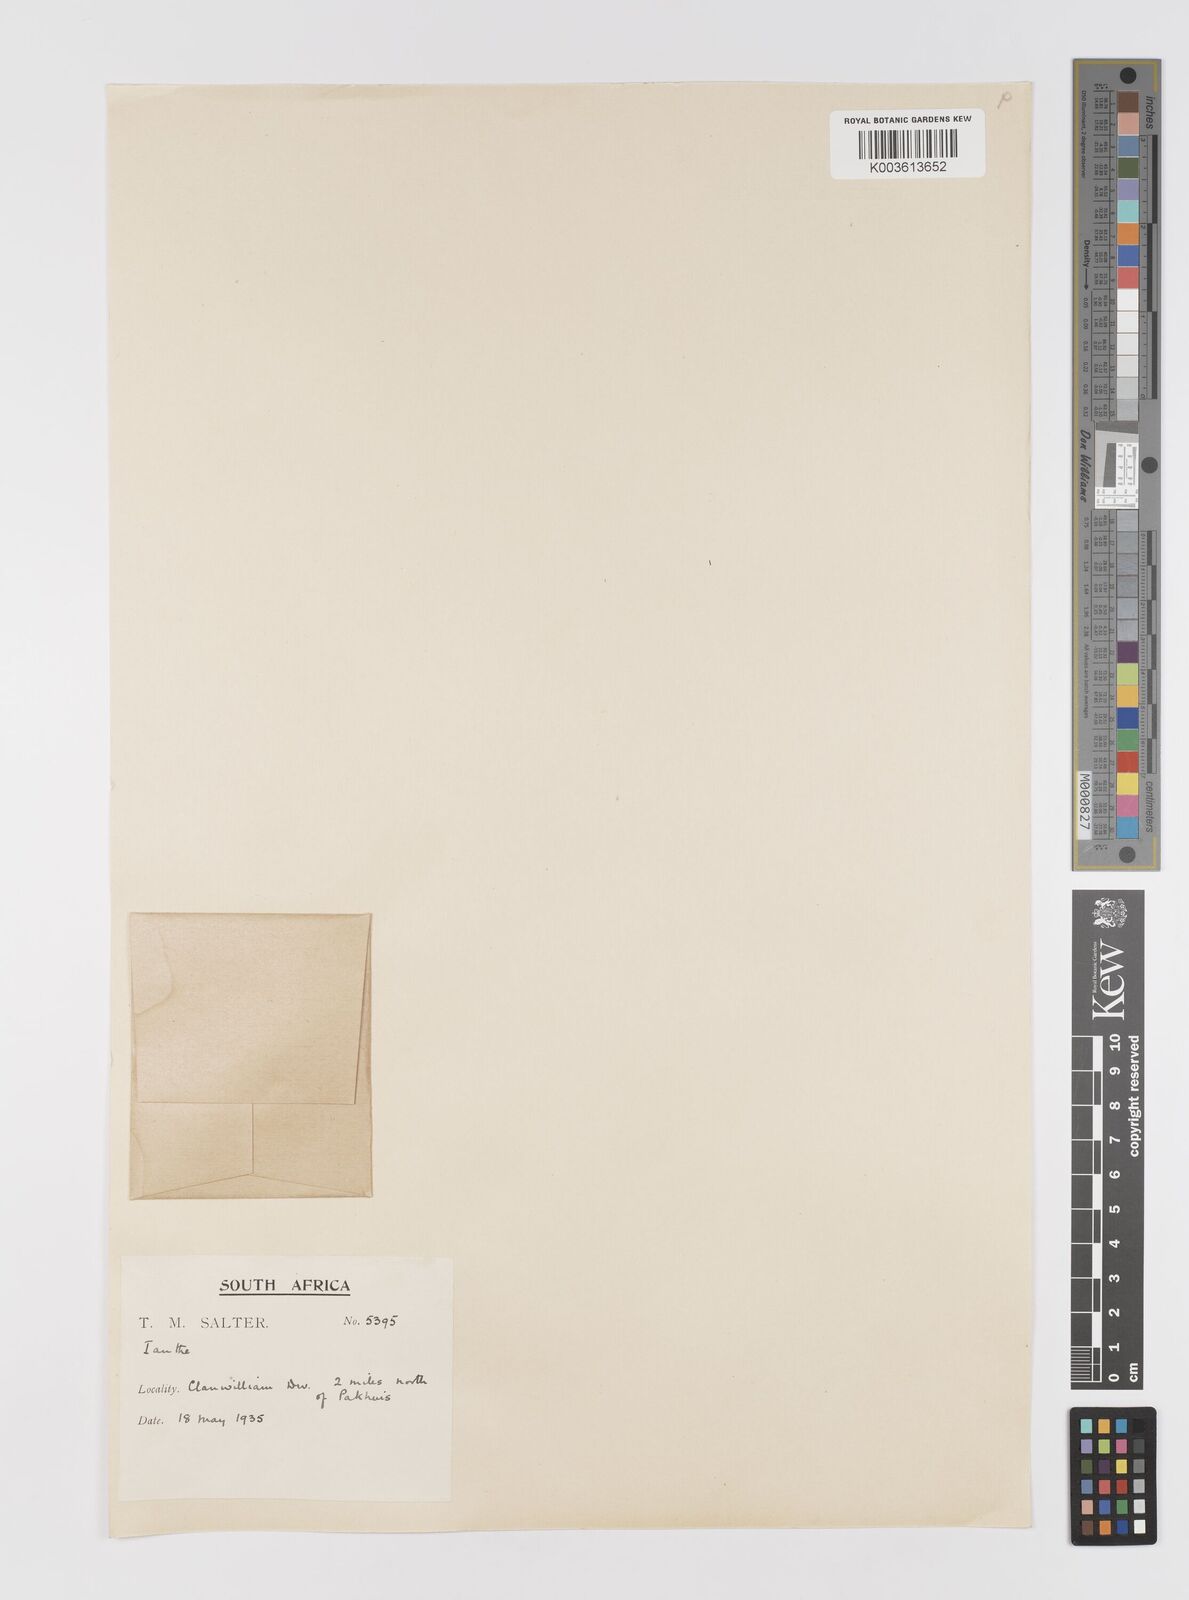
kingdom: Plantae
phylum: Tracheophyta
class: Liliopsida
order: Asparagales
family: Hypoxidaceae
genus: Pauridia
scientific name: Pauridia
